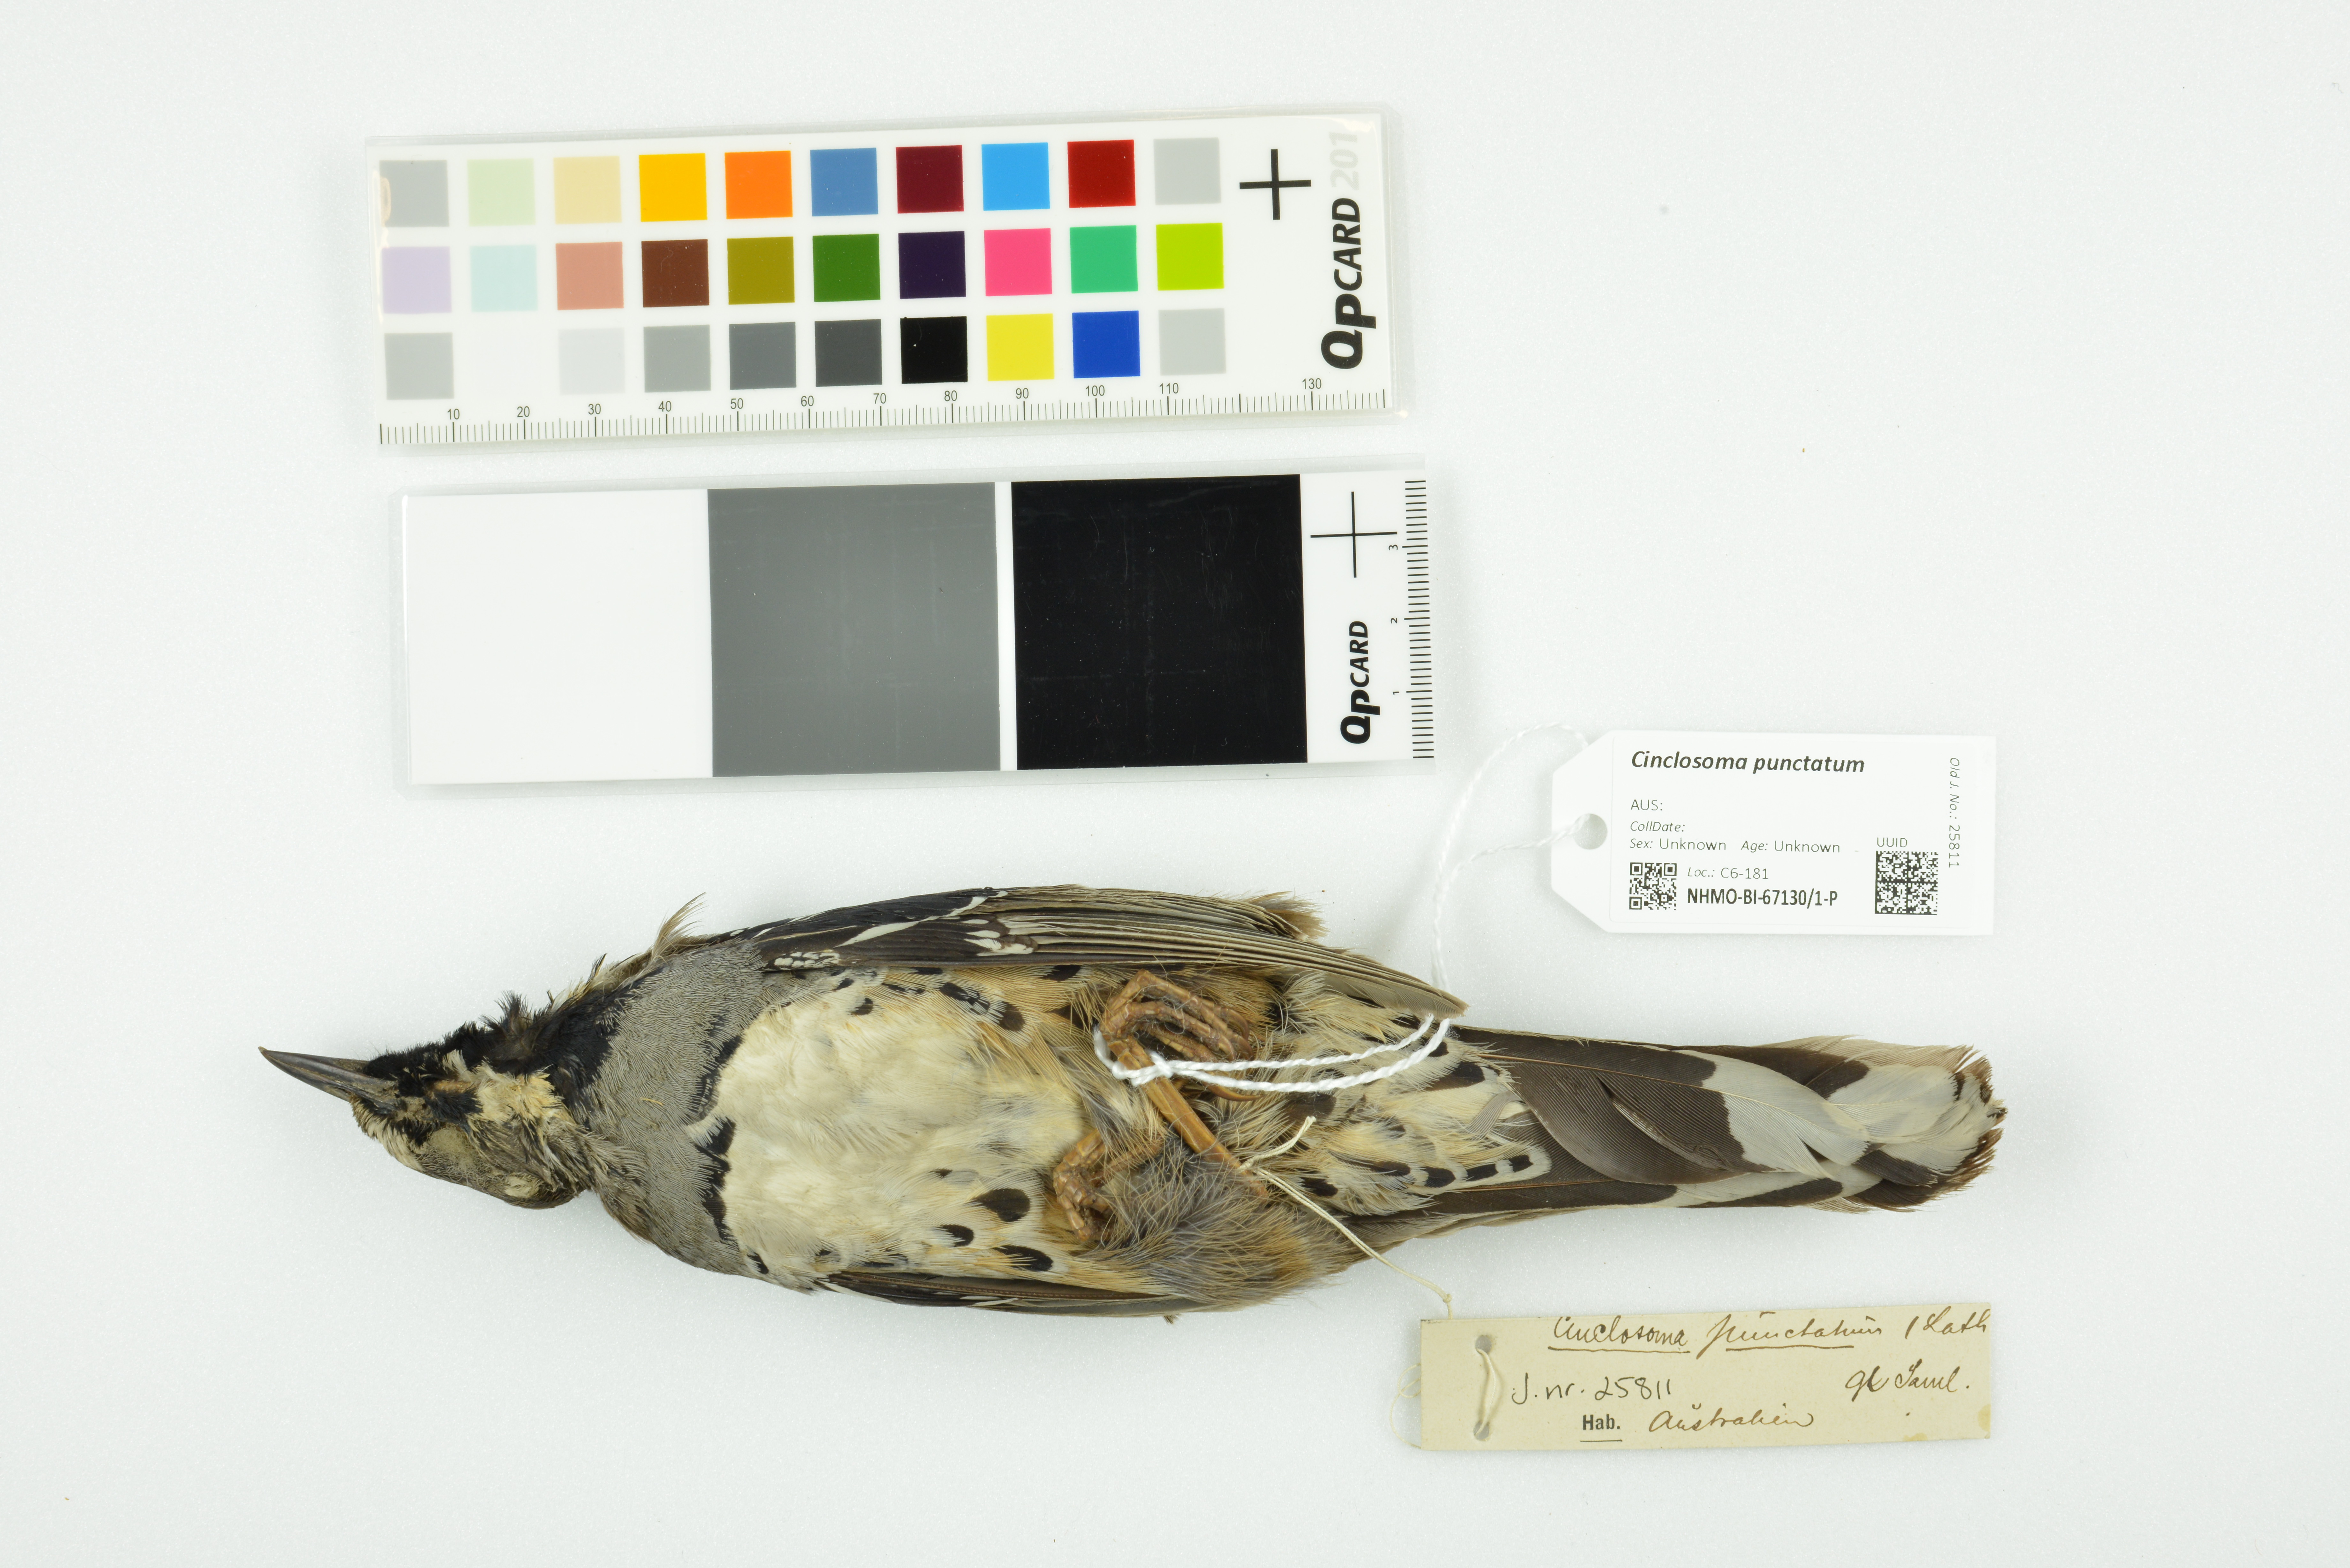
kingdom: Animalia
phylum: Chordata
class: Aves
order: Passeriformes
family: Psophodidae
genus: Cinclosoma
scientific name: Cinclosoma punctatum
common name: Spotted quail-thrush
